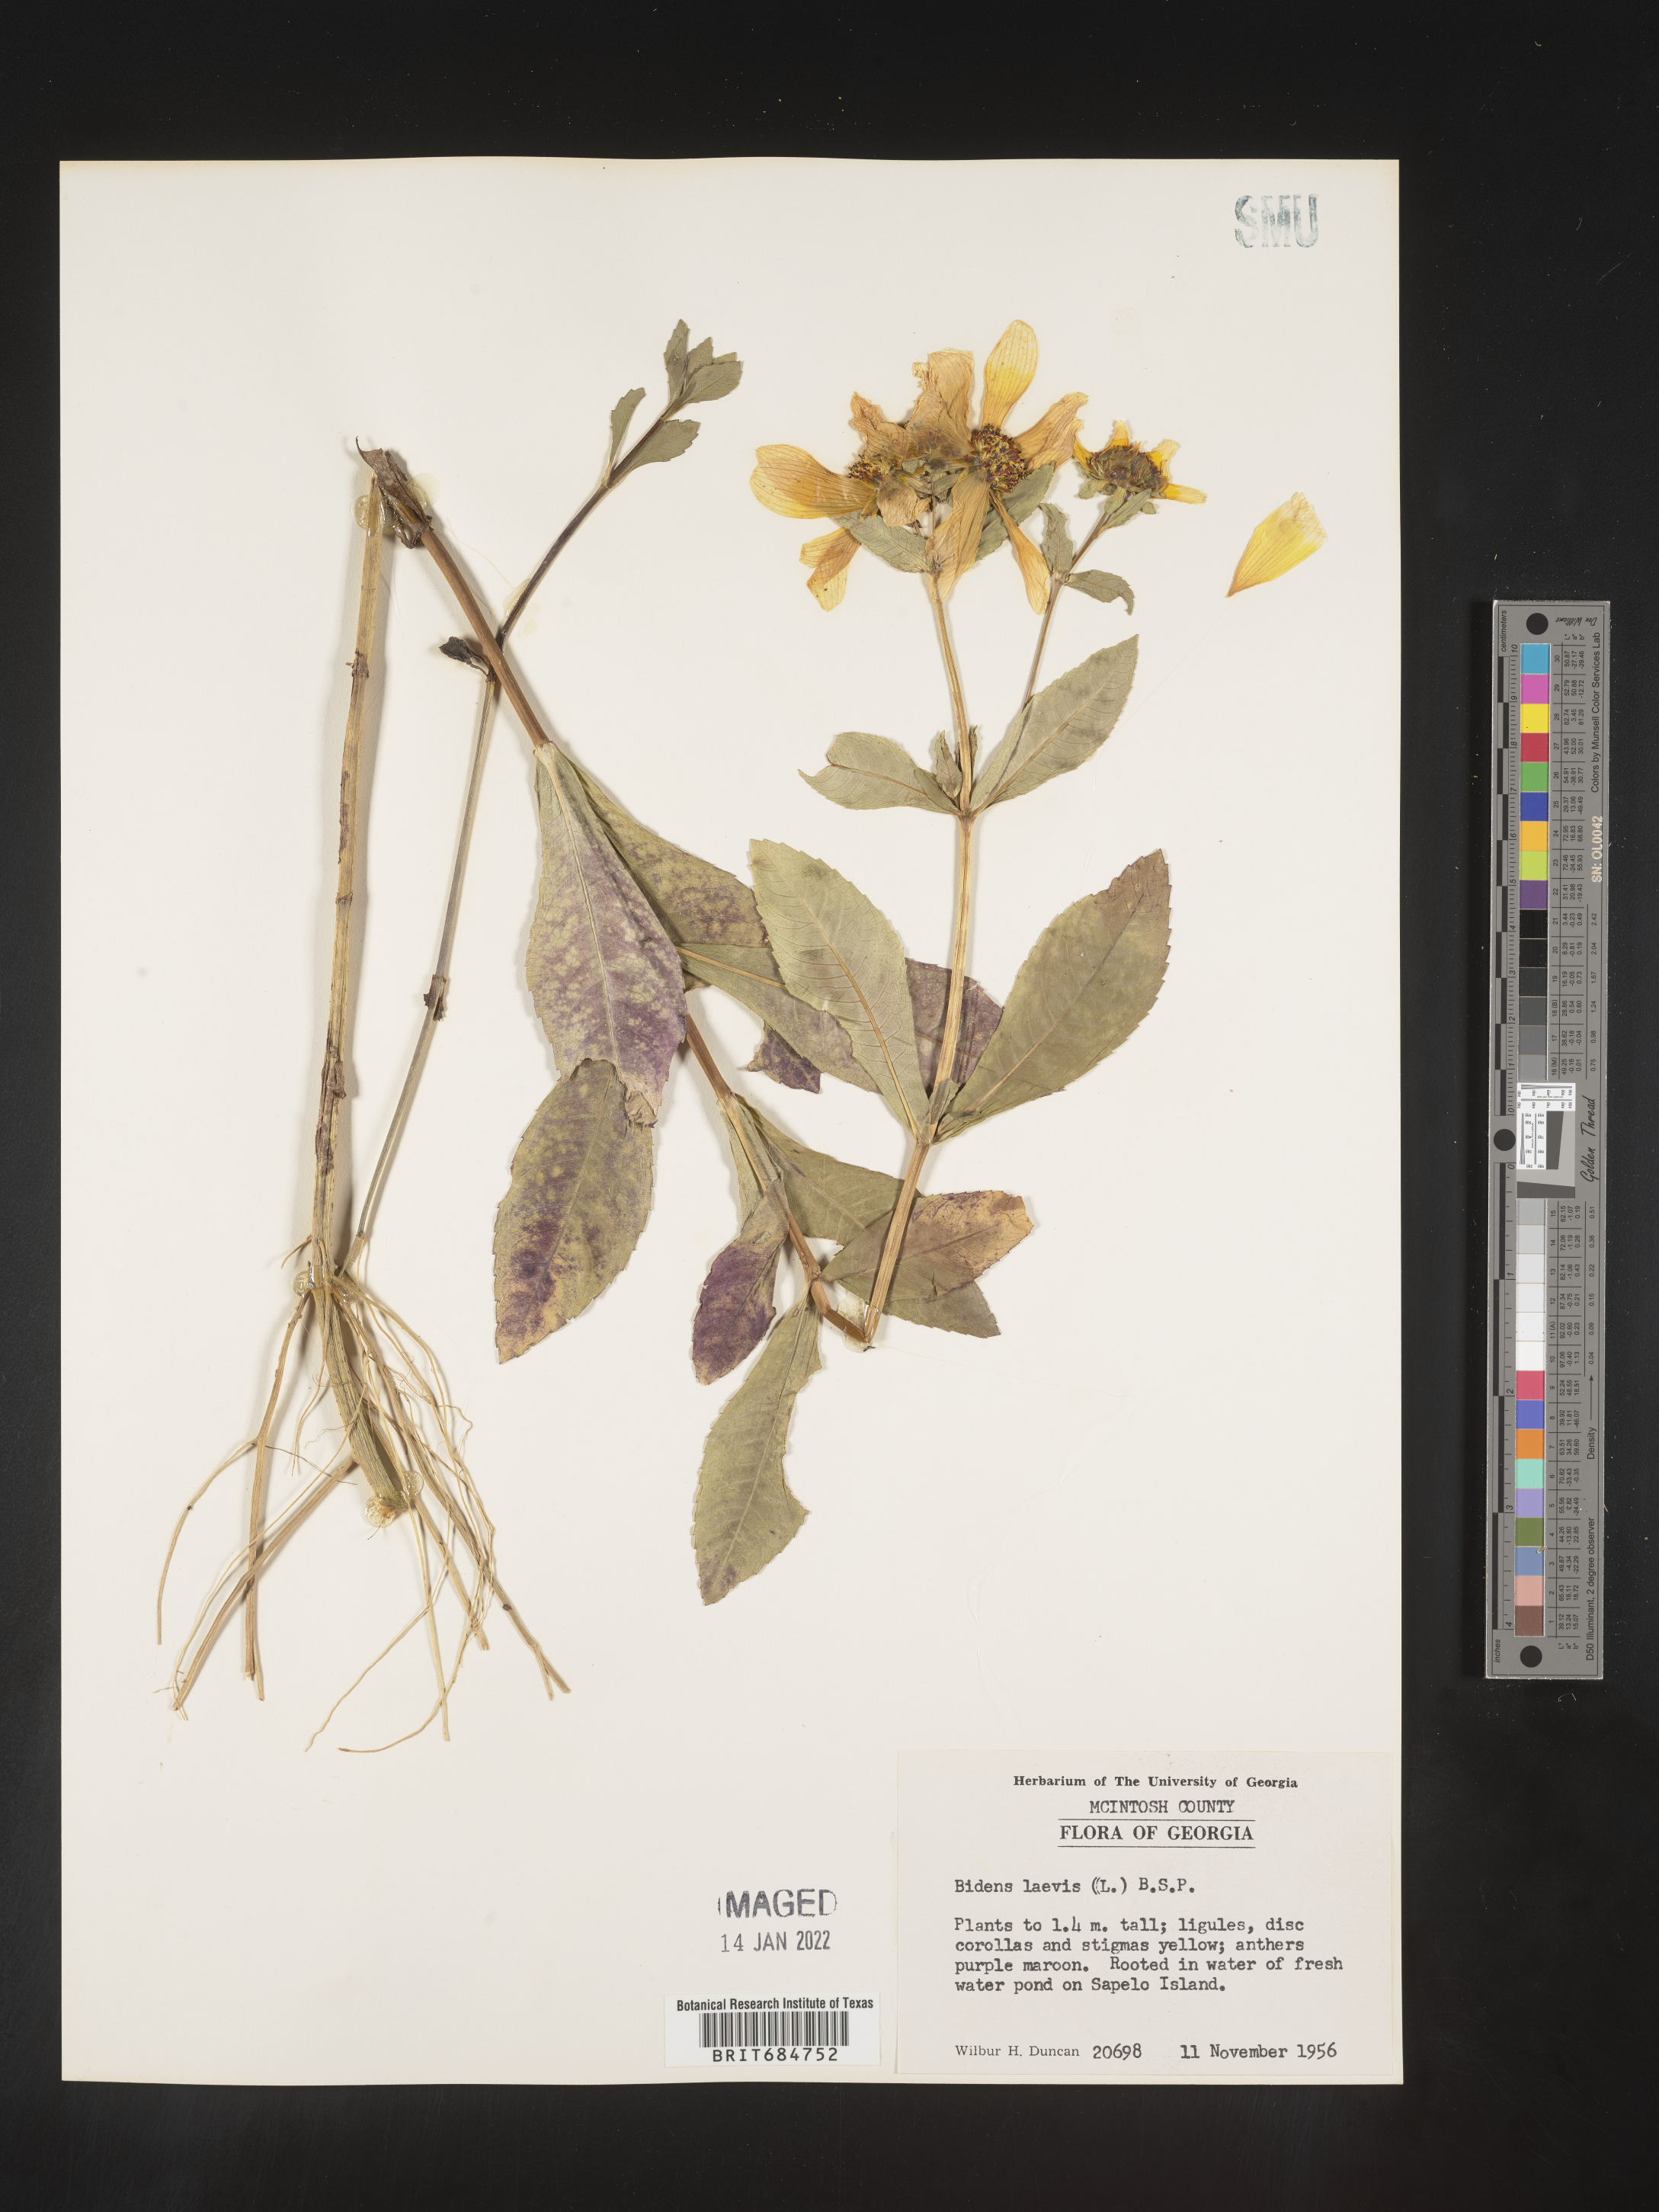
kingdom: Plantae
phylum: Tracheophyta
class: Magnoliopsida
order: Asterales
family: Asteraceae
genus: Bidens
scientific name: Bidens laevis
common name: Larger bur-marigold
